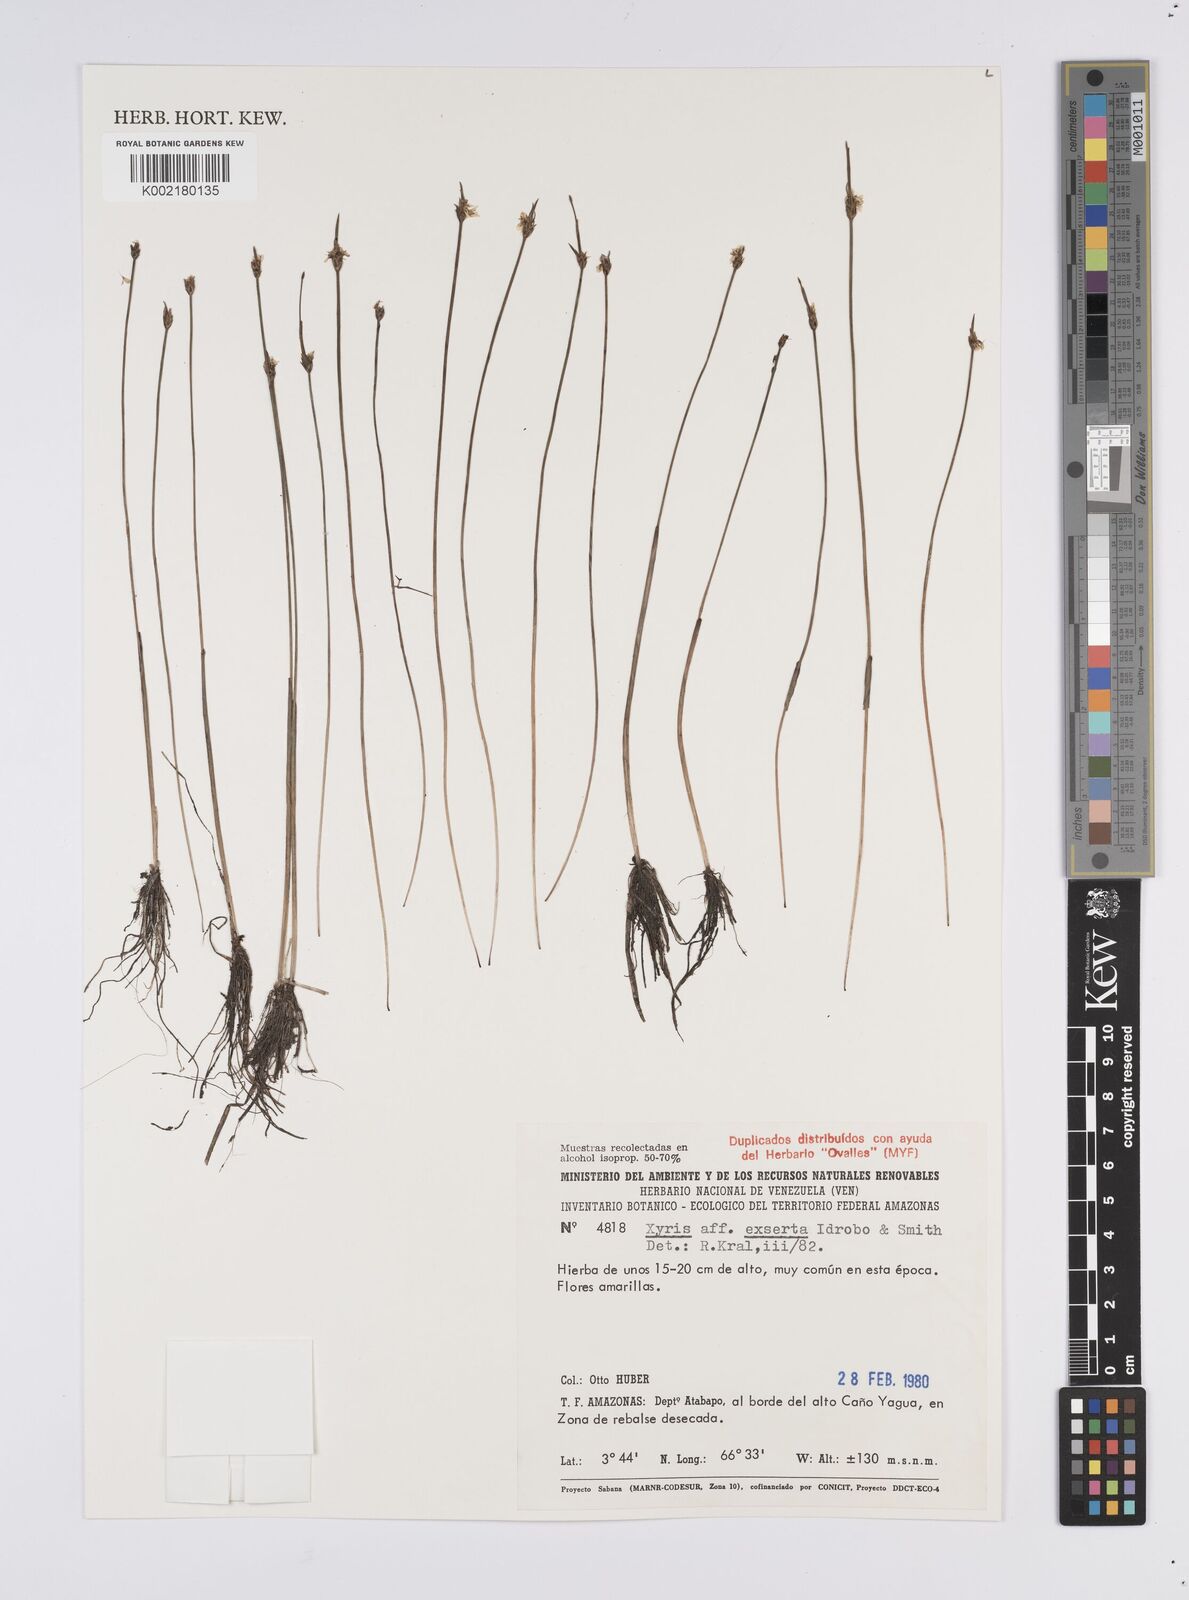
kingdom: Plantae
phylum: Tracheophyta
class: Liliopsida
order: Poales
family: Xyridaceae
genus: Xyris
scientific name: Xyris spathacea
